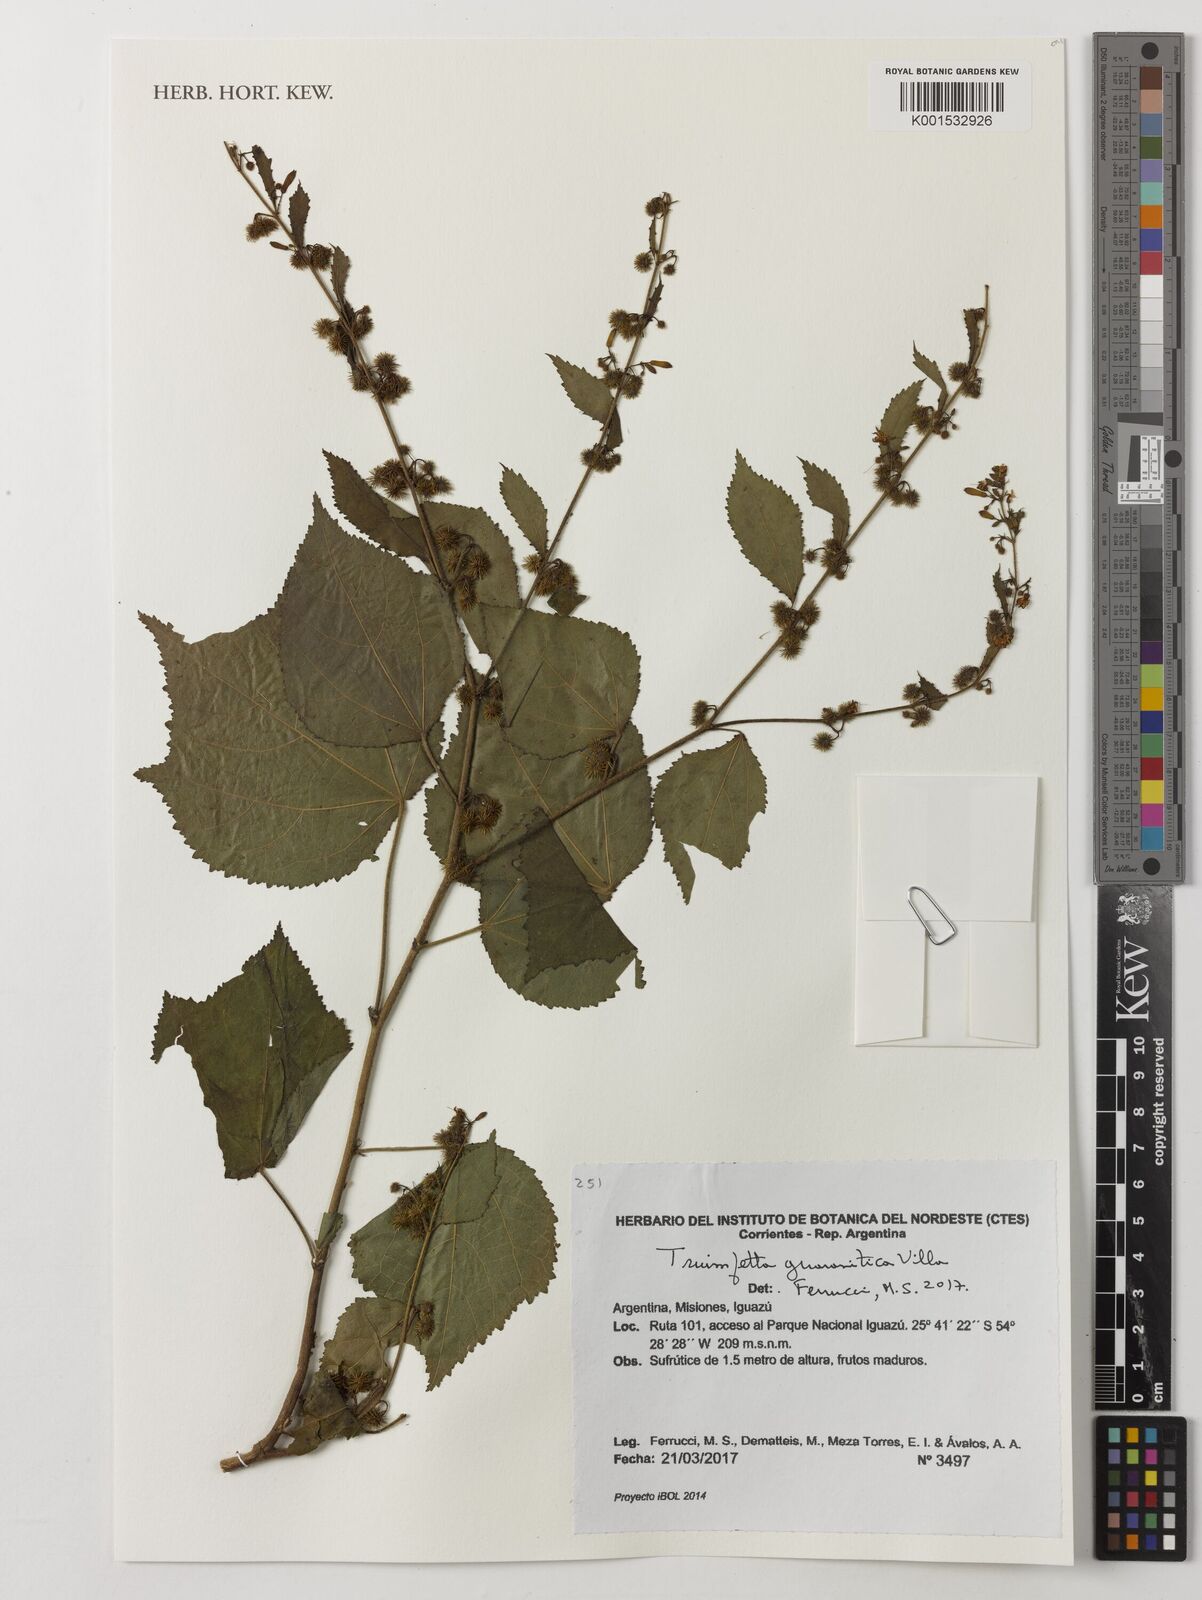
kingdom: Plantae
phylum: Tracheophyta
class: Magnoliopsida
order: Malvales
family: Malvaceae
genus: Triumfetta
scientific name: Triumfetta guaranitica
